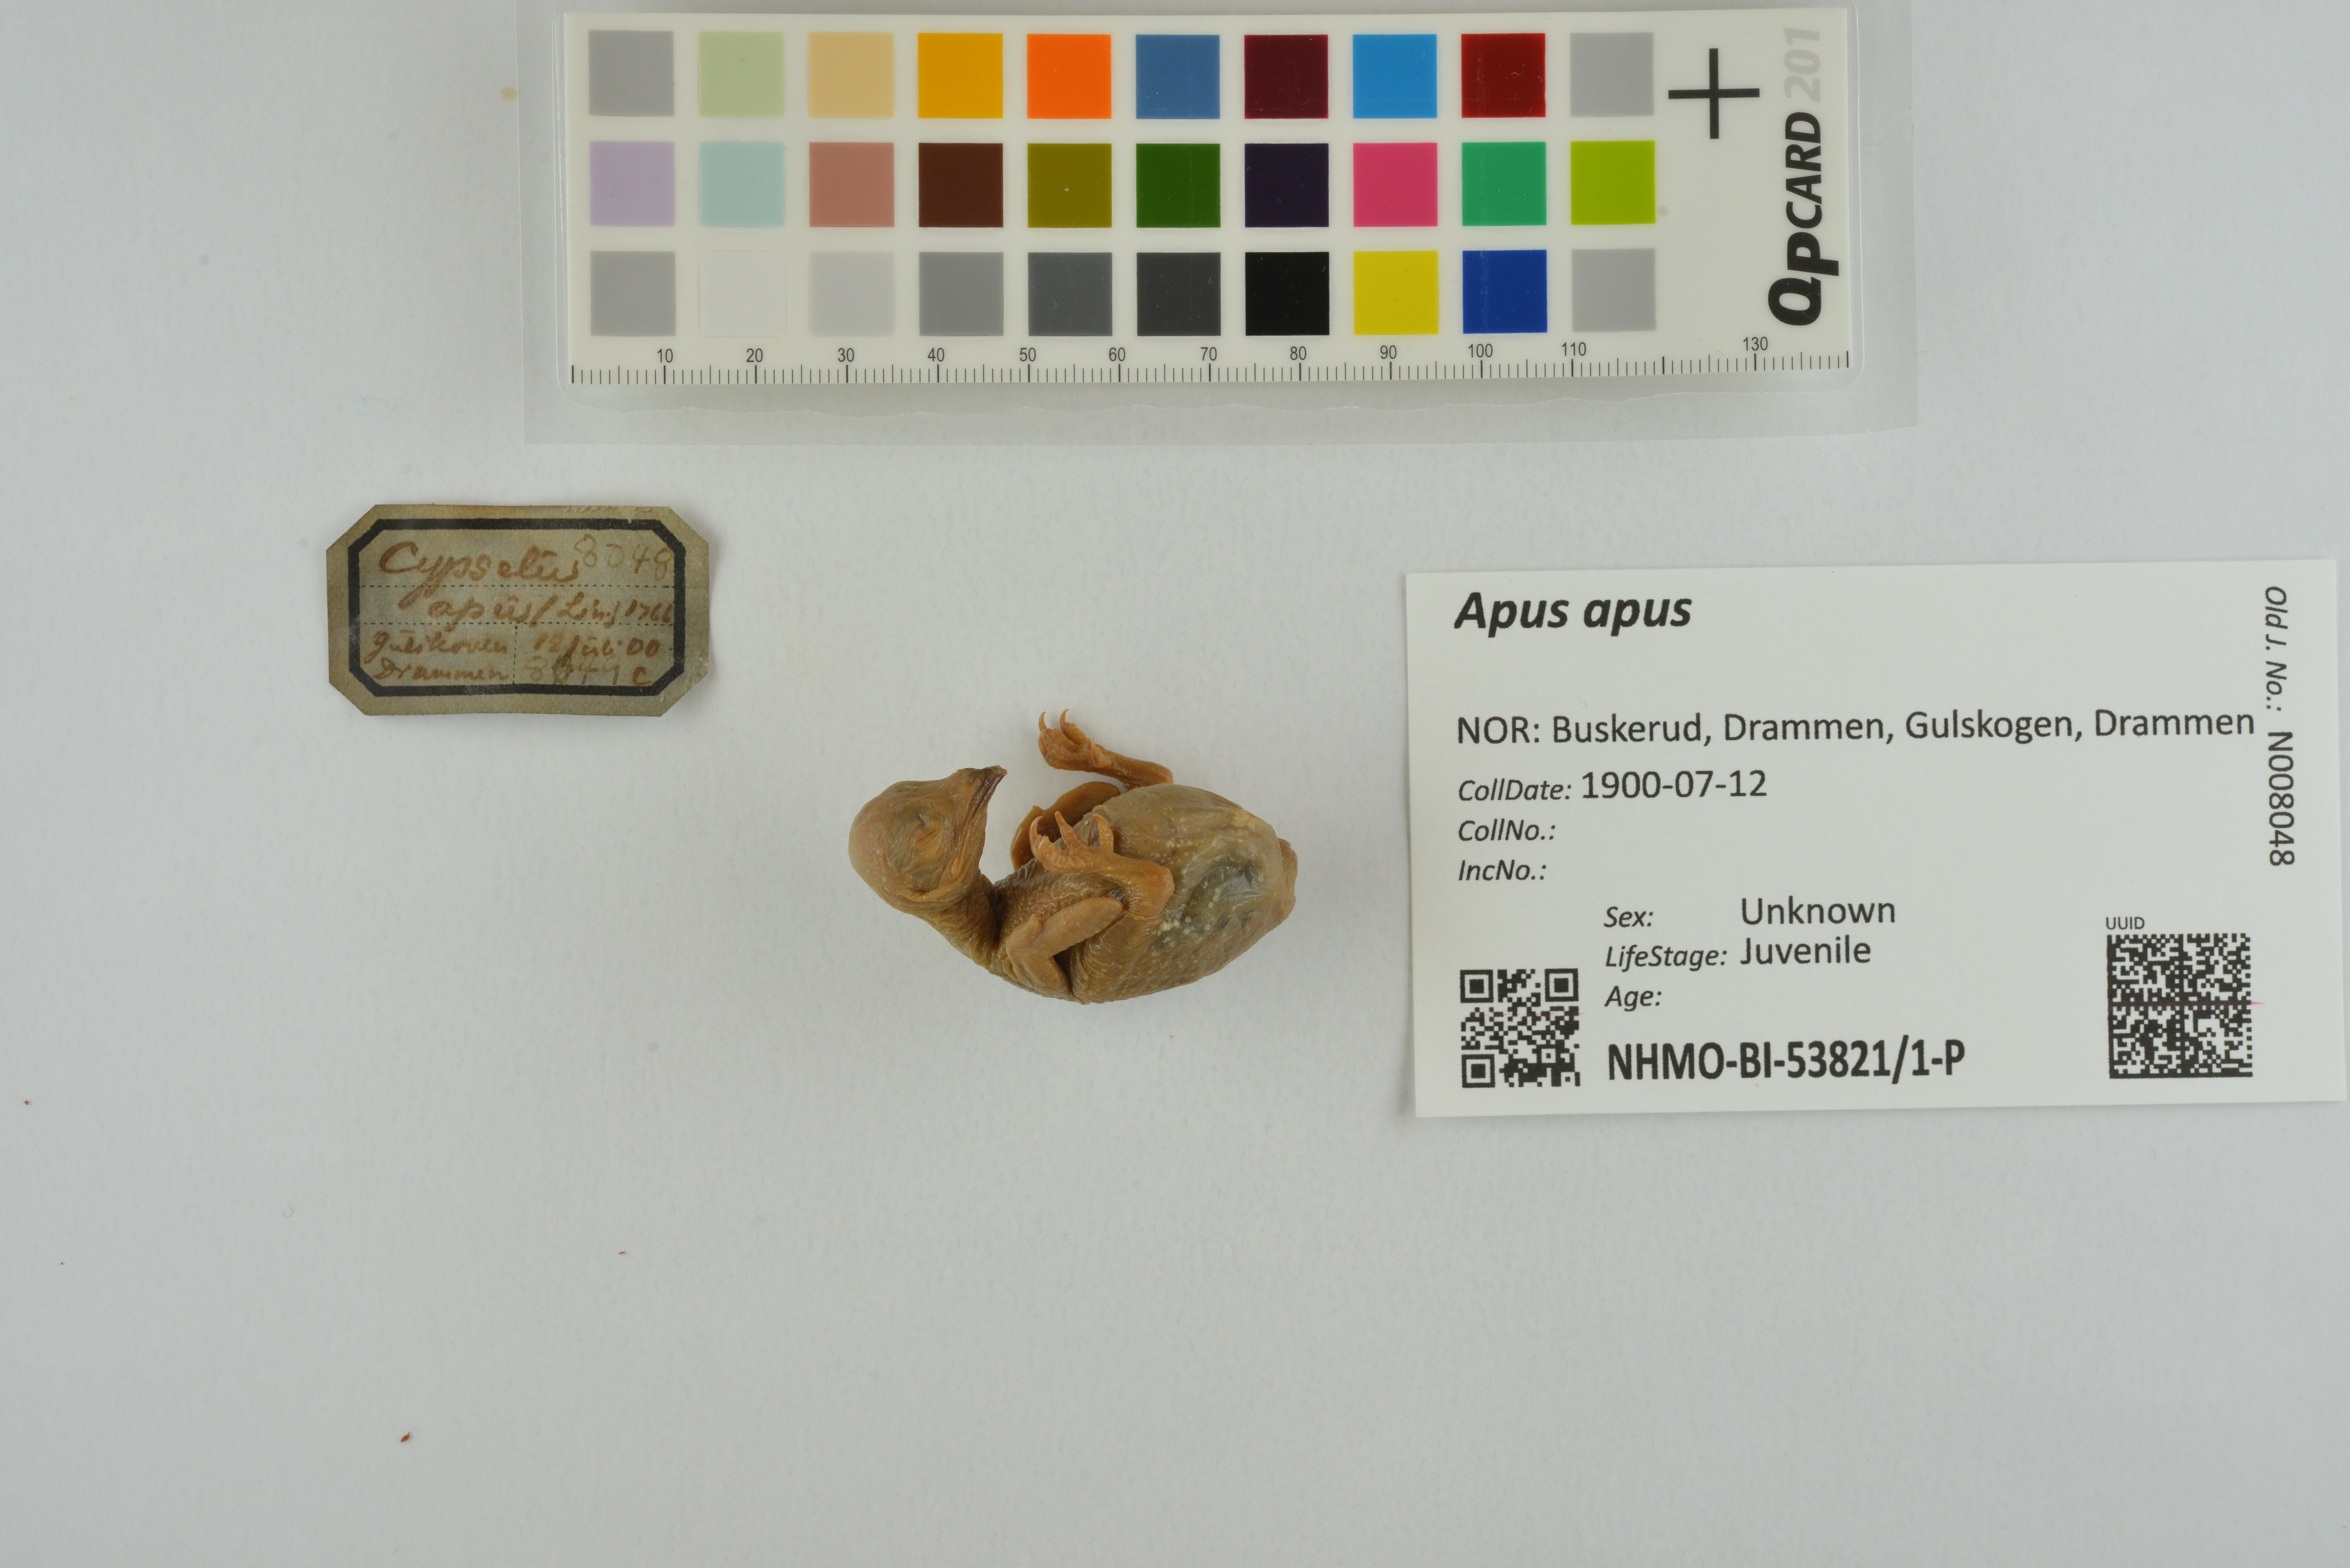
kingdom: Animalia
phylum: Chordata
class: Aves
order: Apodiformes
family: Apodidae
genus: Apus
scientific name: Apus apus
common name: Common swift
